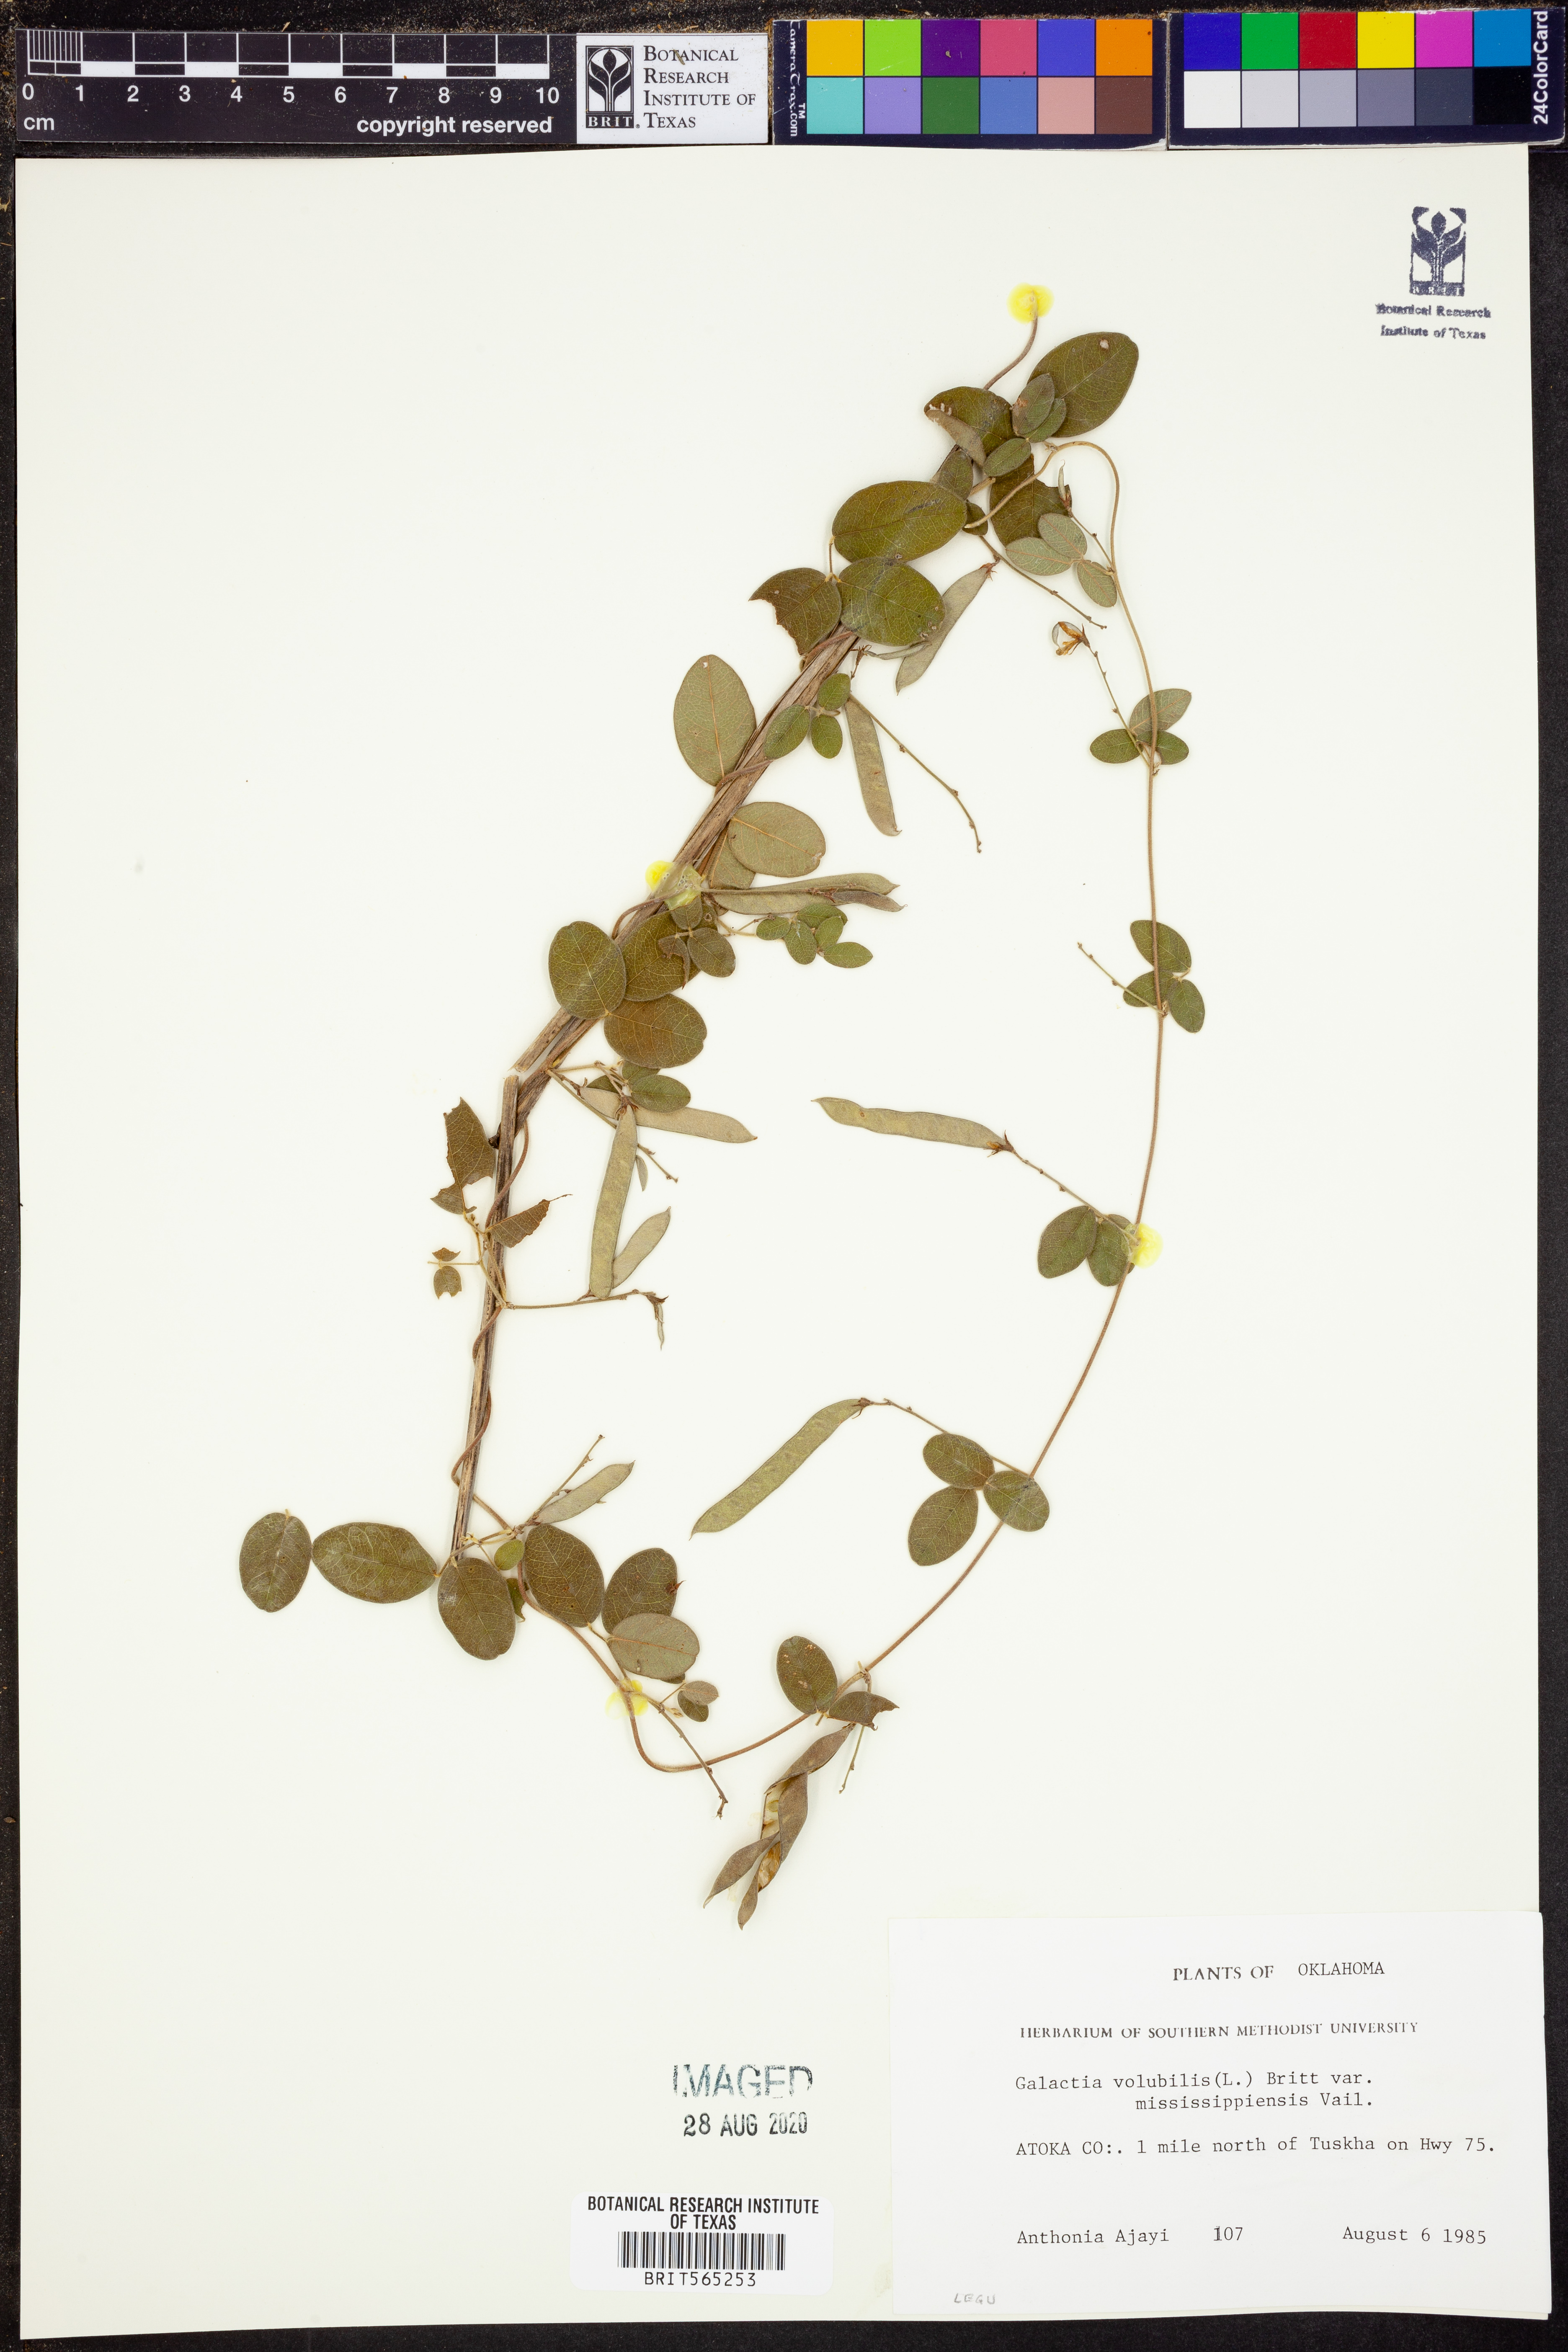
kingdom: Plantae
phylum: Tracheophyta
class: Magnoliopsida
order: Fabales
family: Fabaceae
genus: Galactia
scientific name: Galactia volubilis
